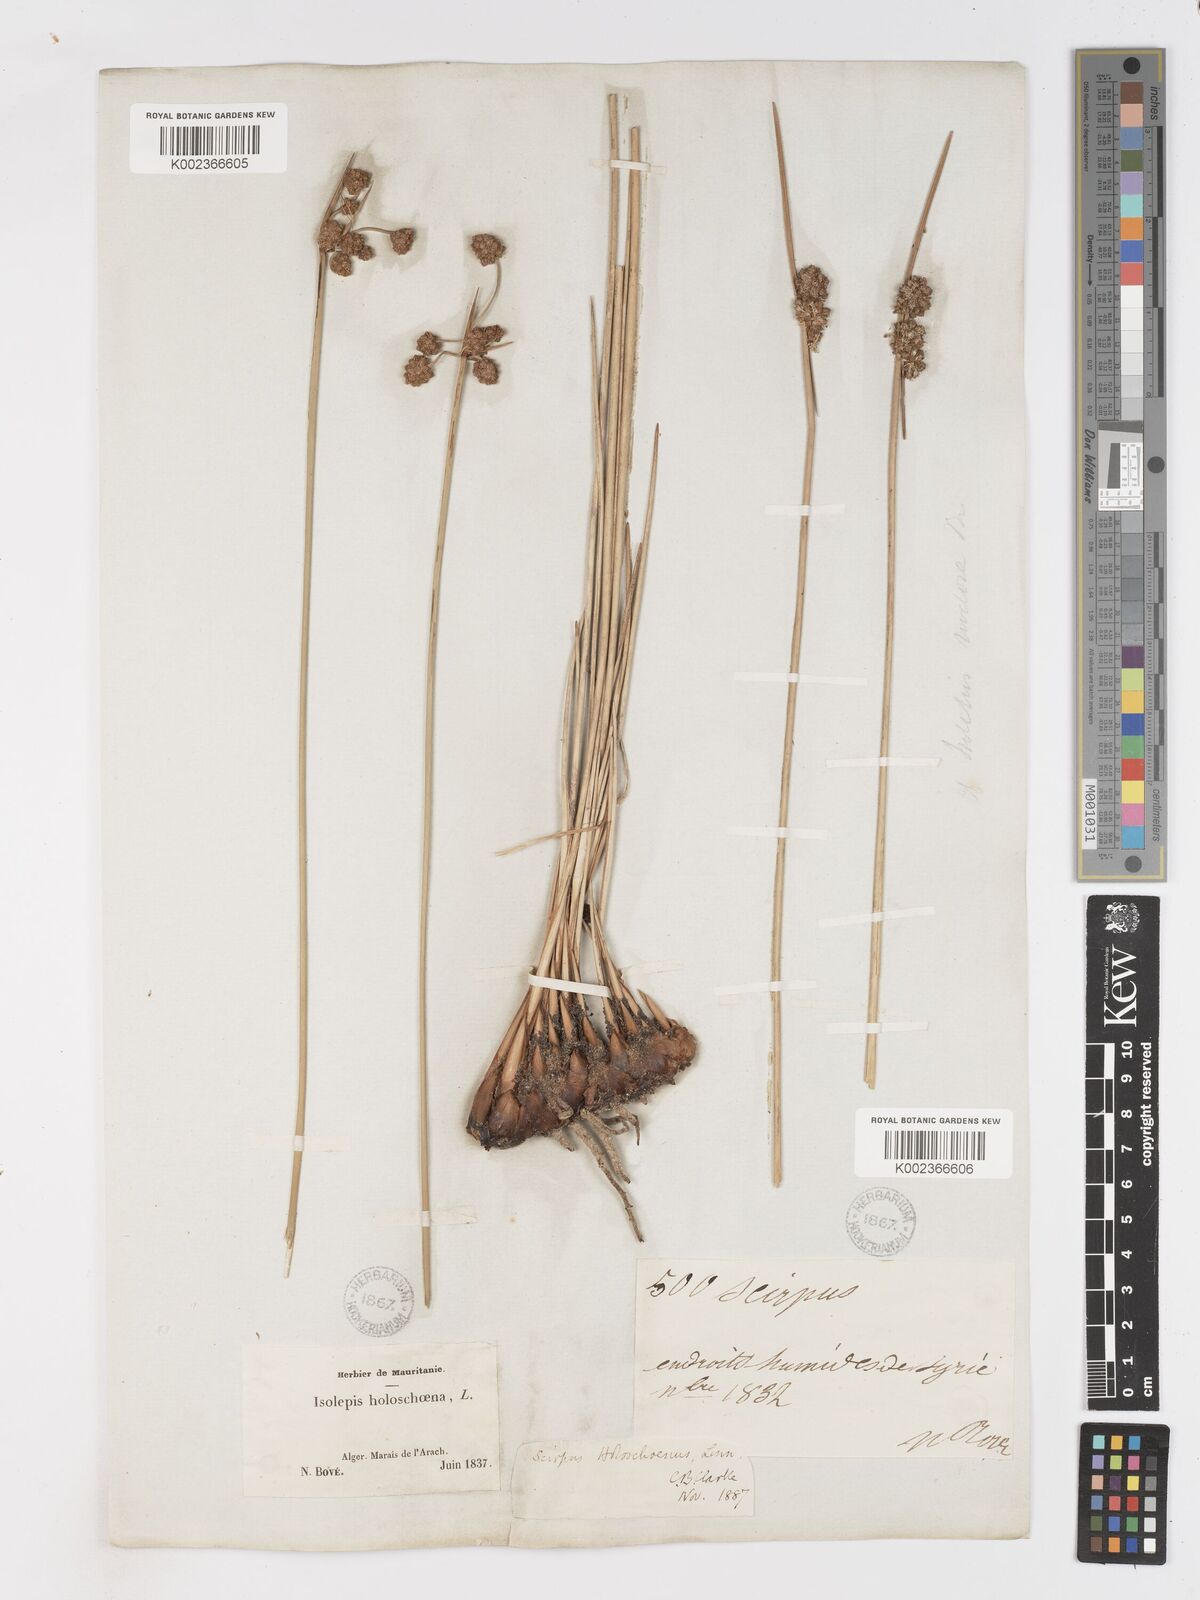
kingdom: Plantae
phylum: Tracheophyta
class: Liliopsida
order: Poales
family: Cyperaceae
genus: Scirpoides
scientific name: Scirpoides holoschoenus
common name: Round-headed club-rush
